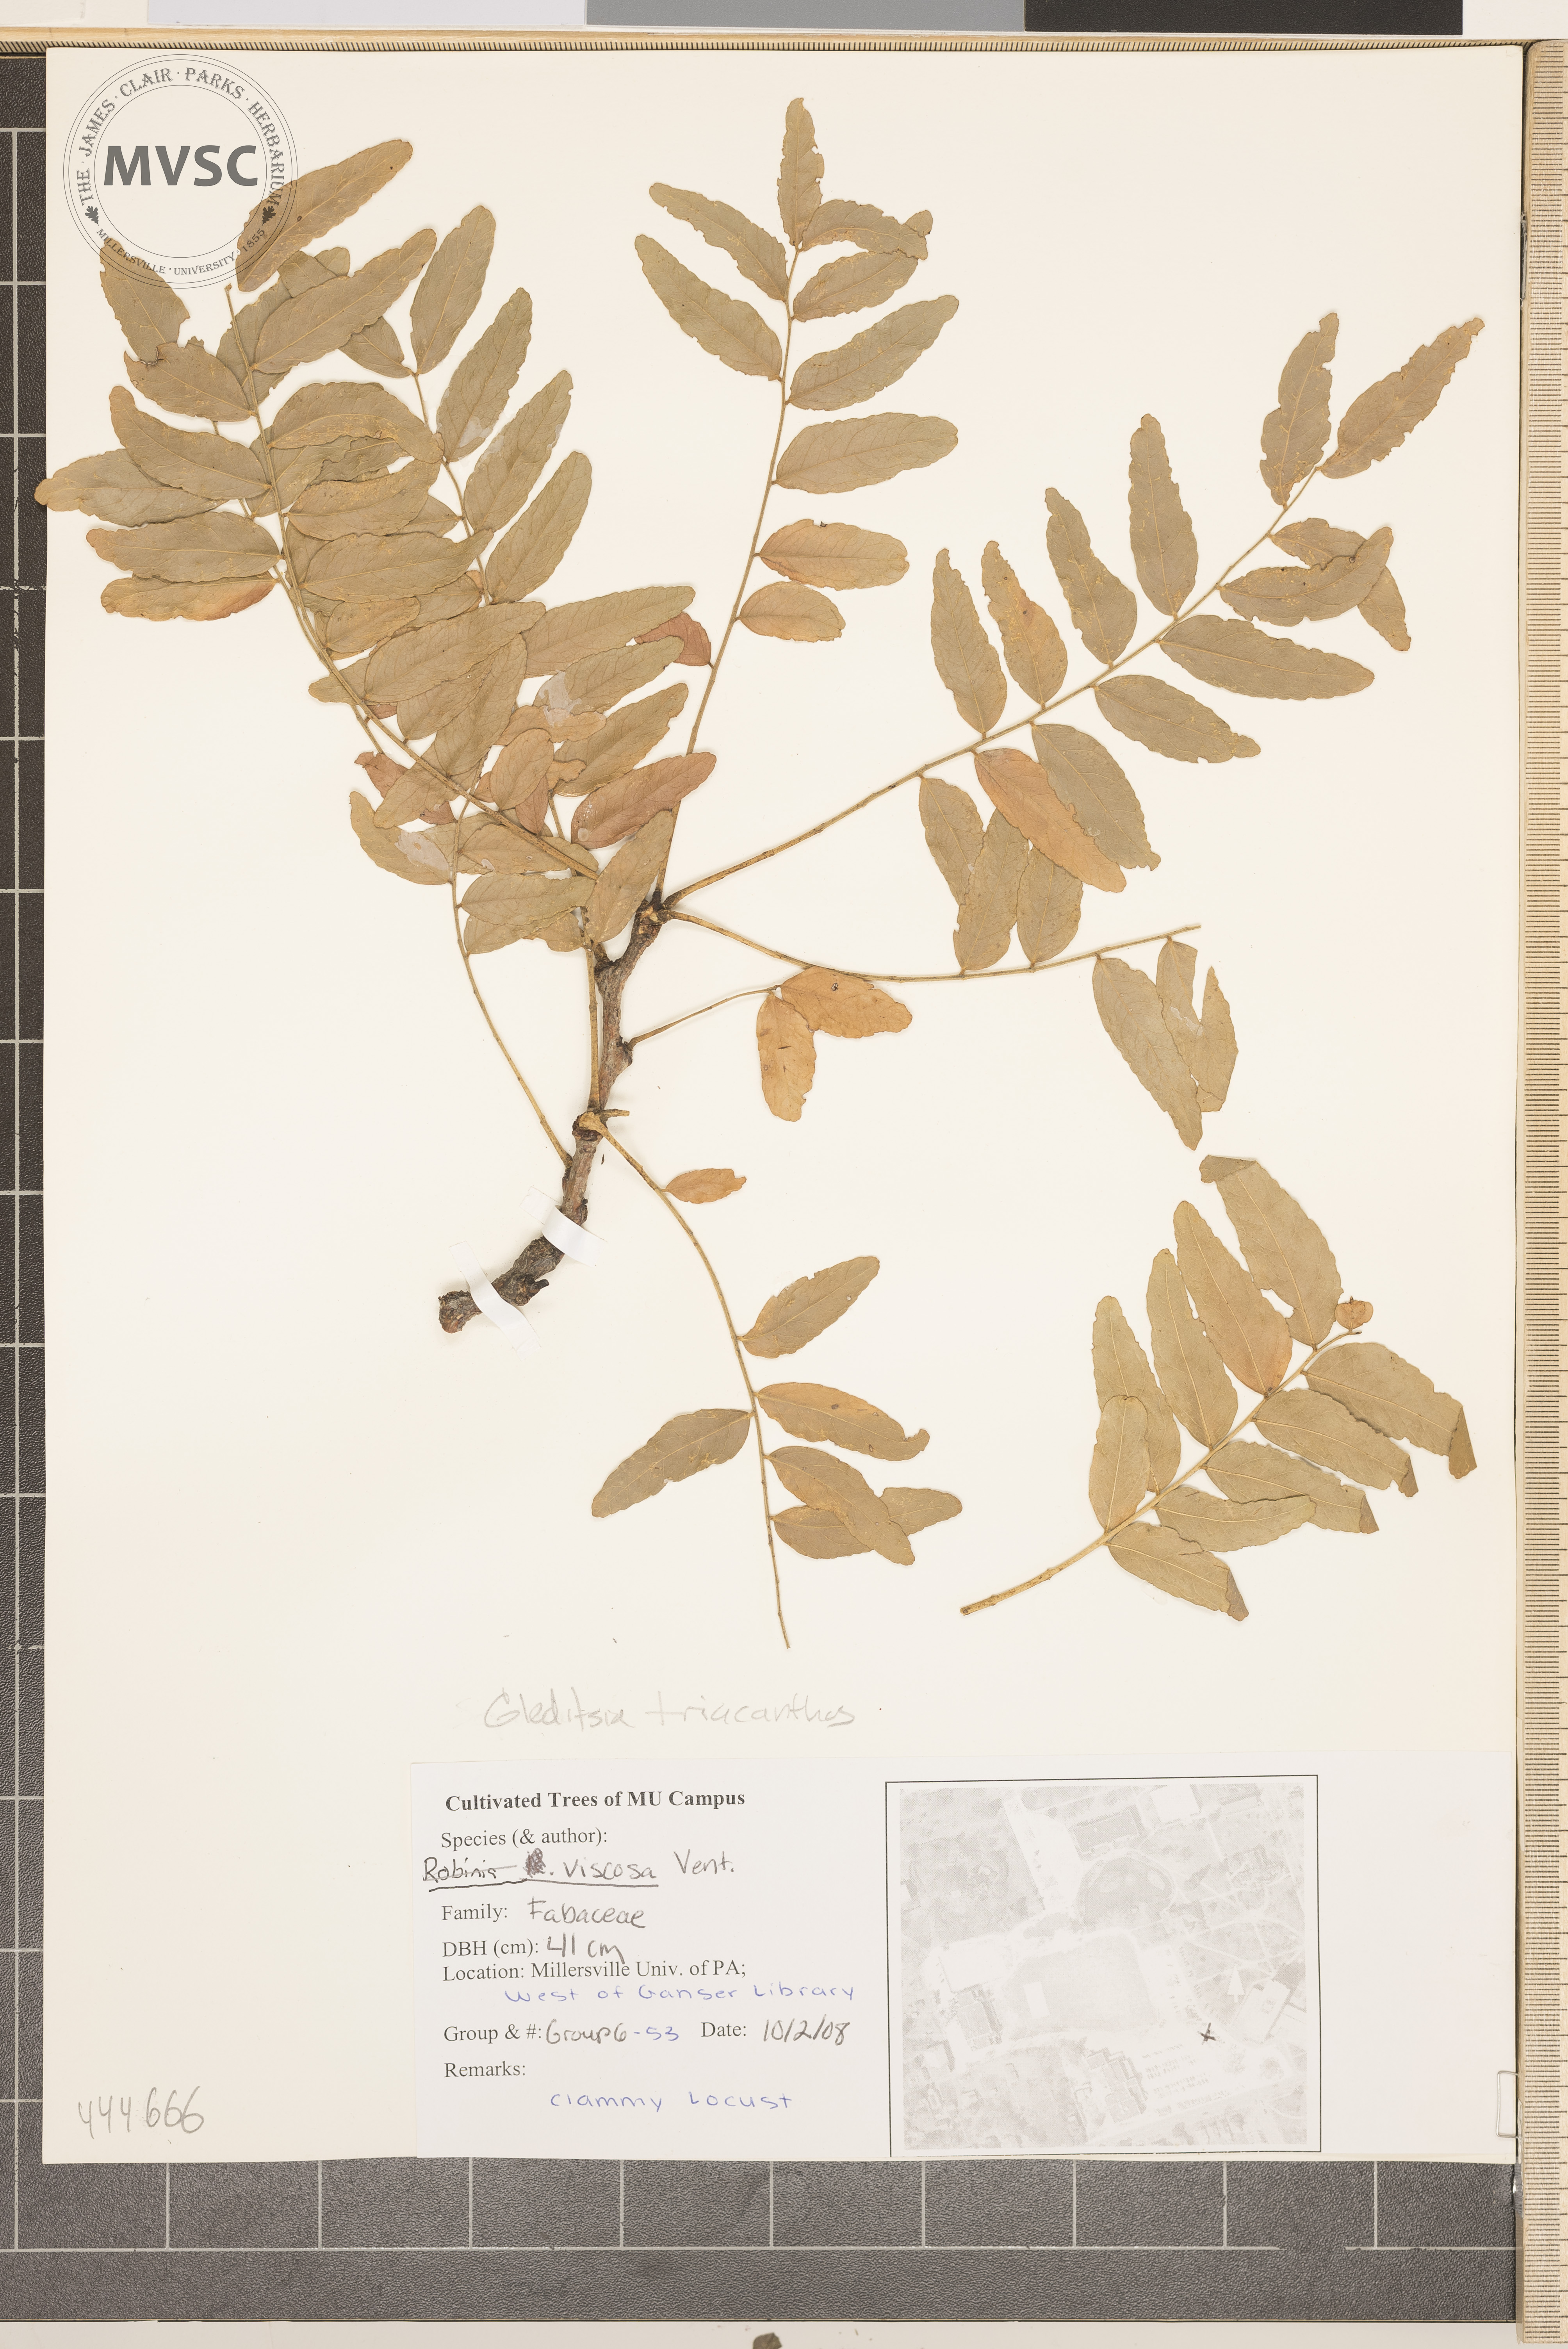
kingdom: Plantae
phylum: Tracheophyta
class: Magnoliopsida
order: Fabales
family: Fabaceae
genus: Gleditsia
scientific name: Gleditsia triacanthos
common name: Common honeylocust
